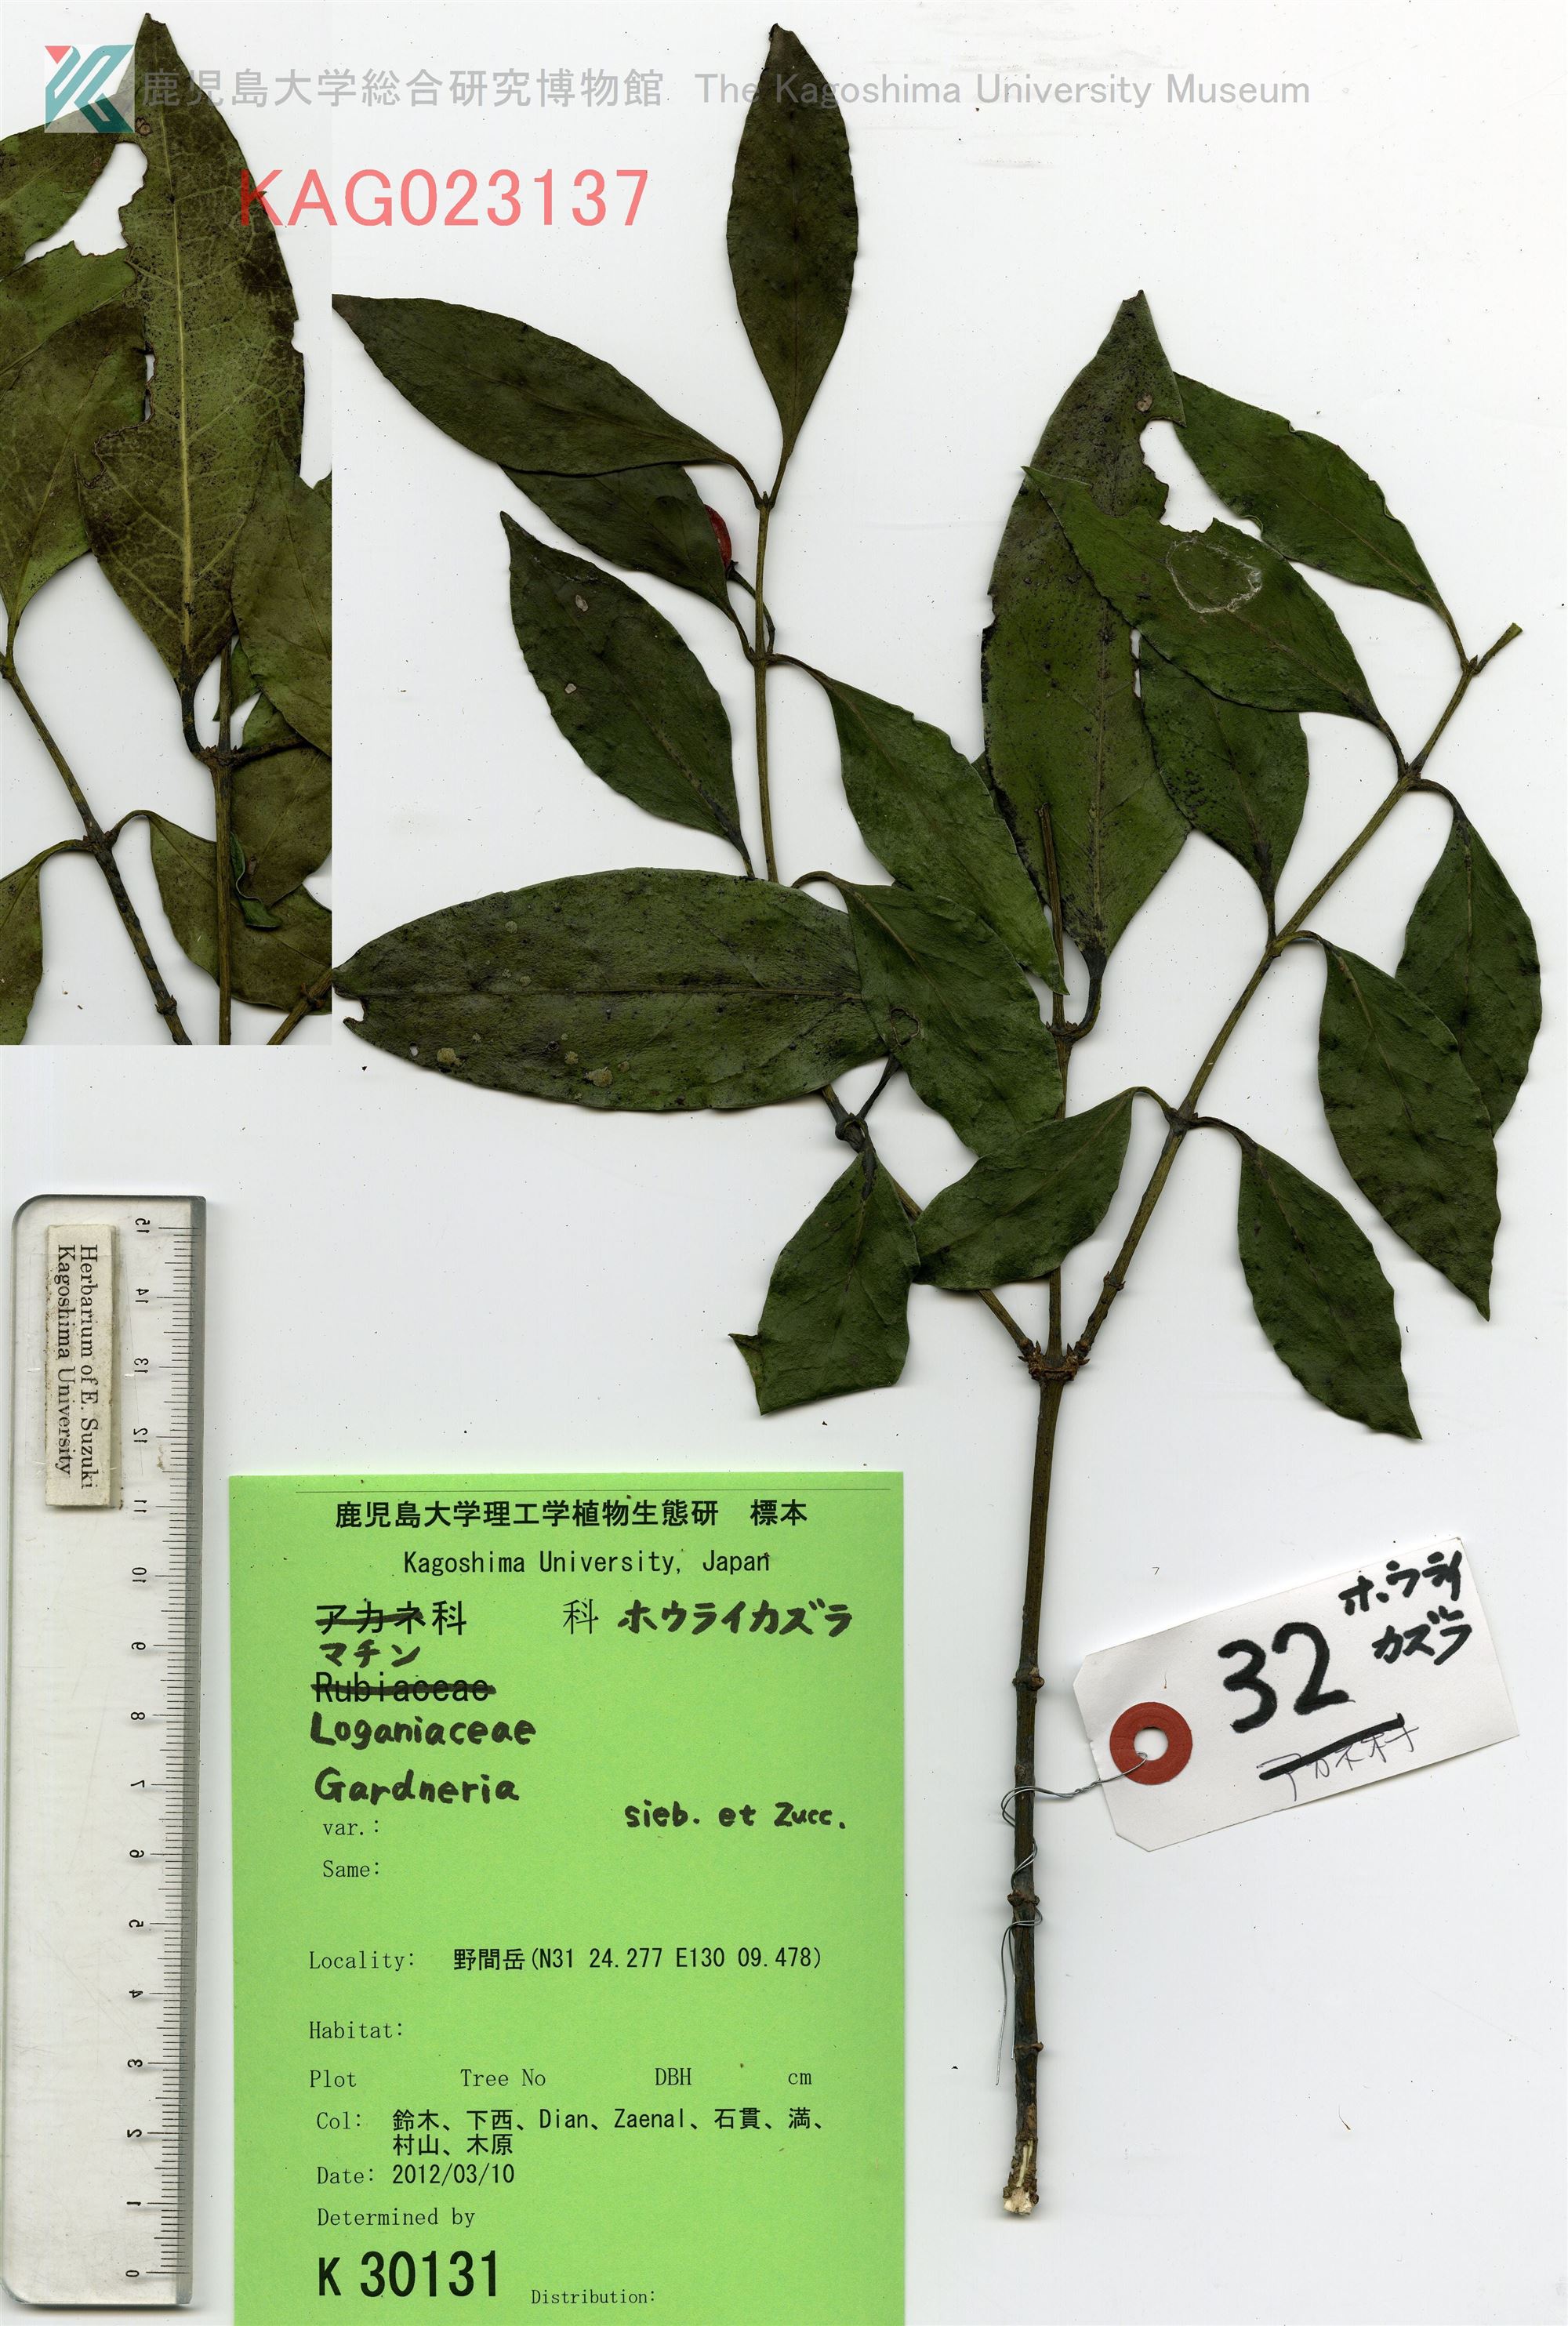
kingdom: Plantae
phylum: Tracheophyta
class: Magnoliopsida
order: Gentianales
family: Loganiaceae
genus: Gardneria
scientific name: Gardneria nutans
